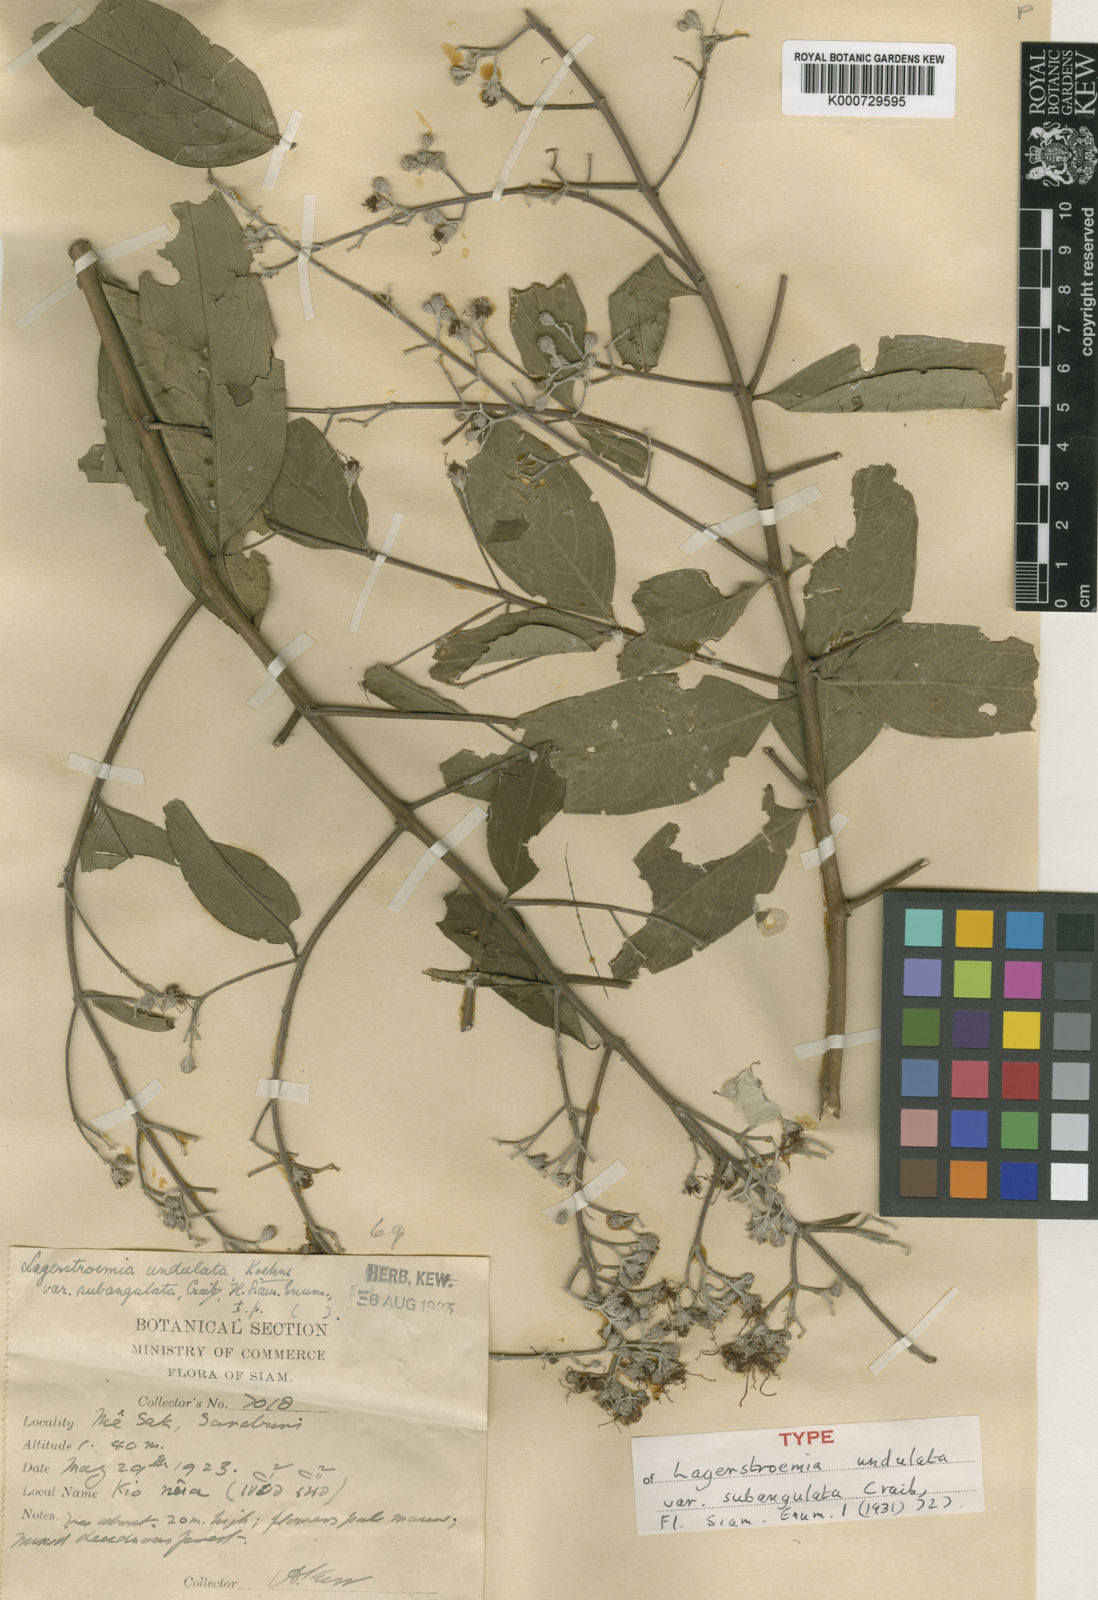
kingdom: Plantae
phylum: Tracheophyta
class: Magnoliopsida
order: Myrtales
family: Lythraceae
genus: Lagerstroemia
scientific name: Lagerstroemia subangulata
